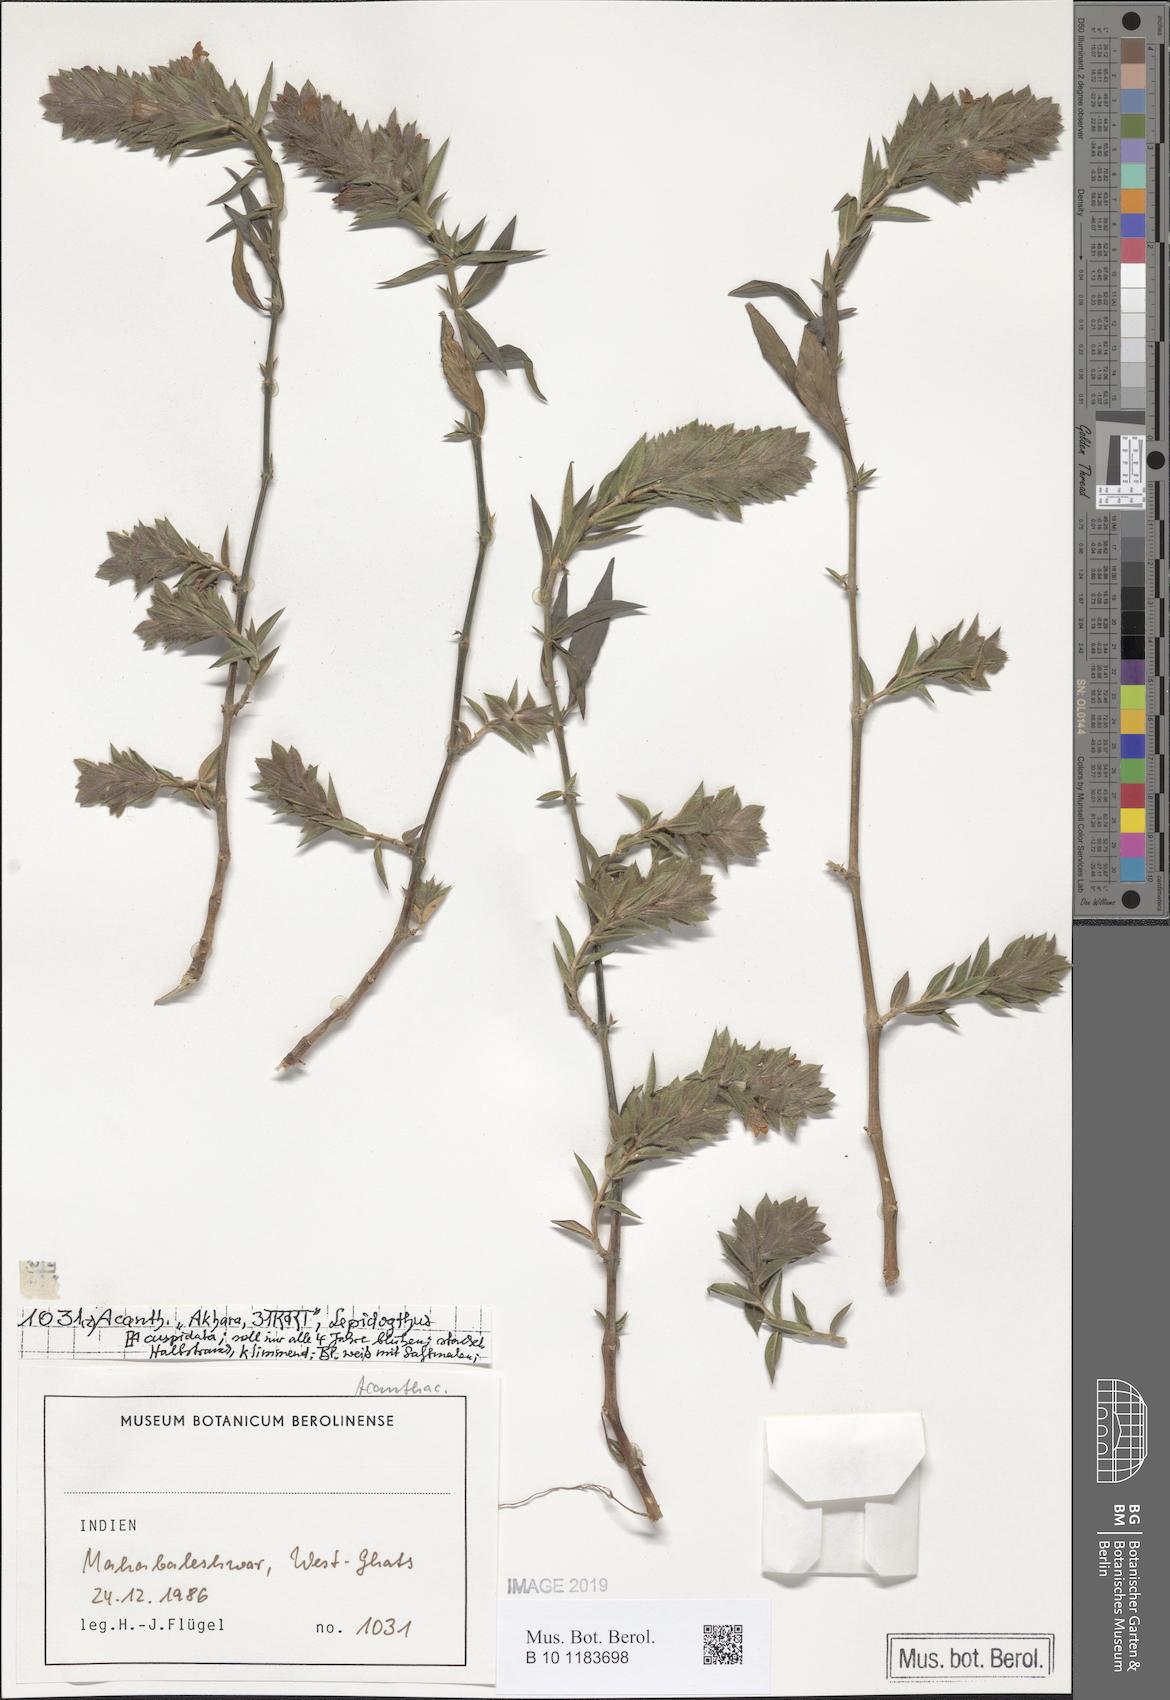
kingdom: Plantae
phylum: Tracheophyta
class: Magnoliopsida
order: Lamiales
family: Acanthaceae
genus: Lepidagathis
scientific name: Lepidagathis cuspidata
